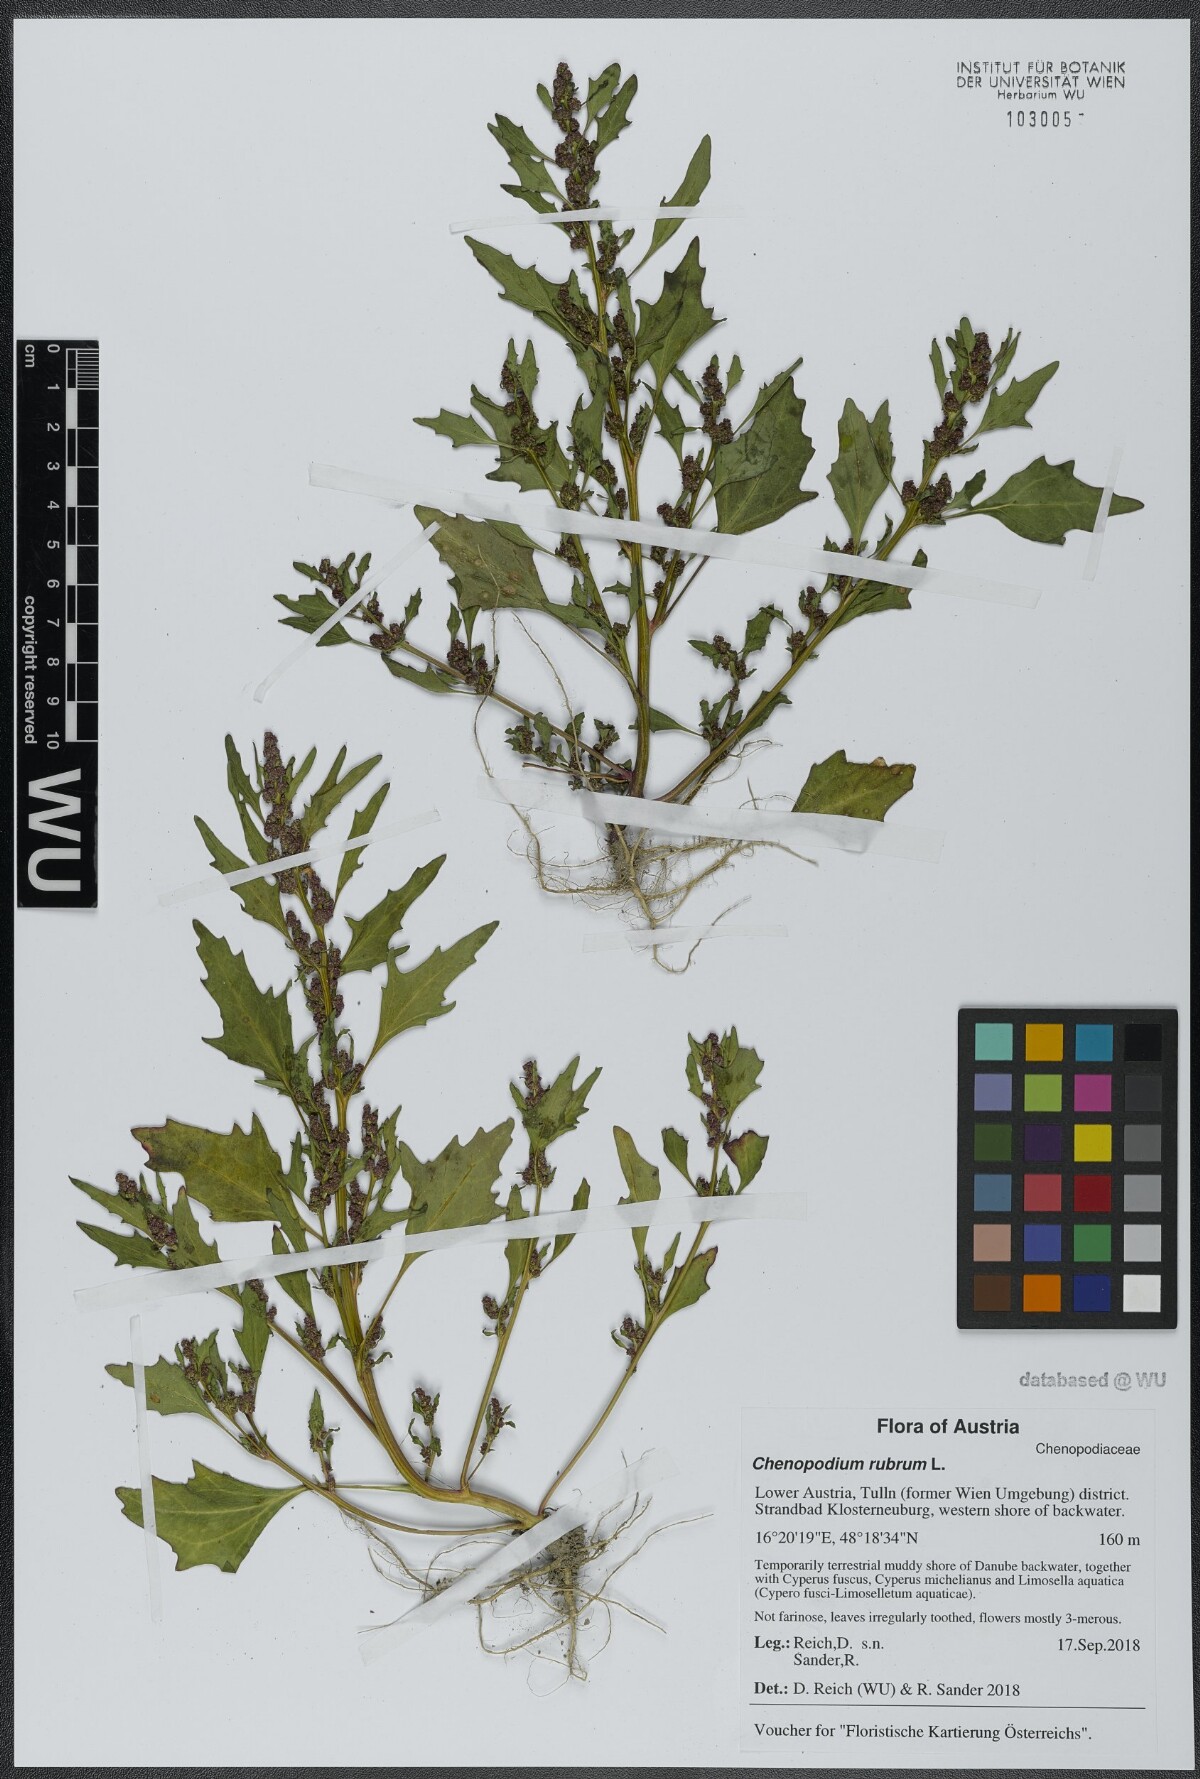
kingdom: Plantae
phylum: Tracheophyta
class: Magnoliopsida
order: Caryophyllales
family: Amaranthaceae
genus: Oxybasis
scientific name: Oxybasis rubra
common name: Red goosefoot
